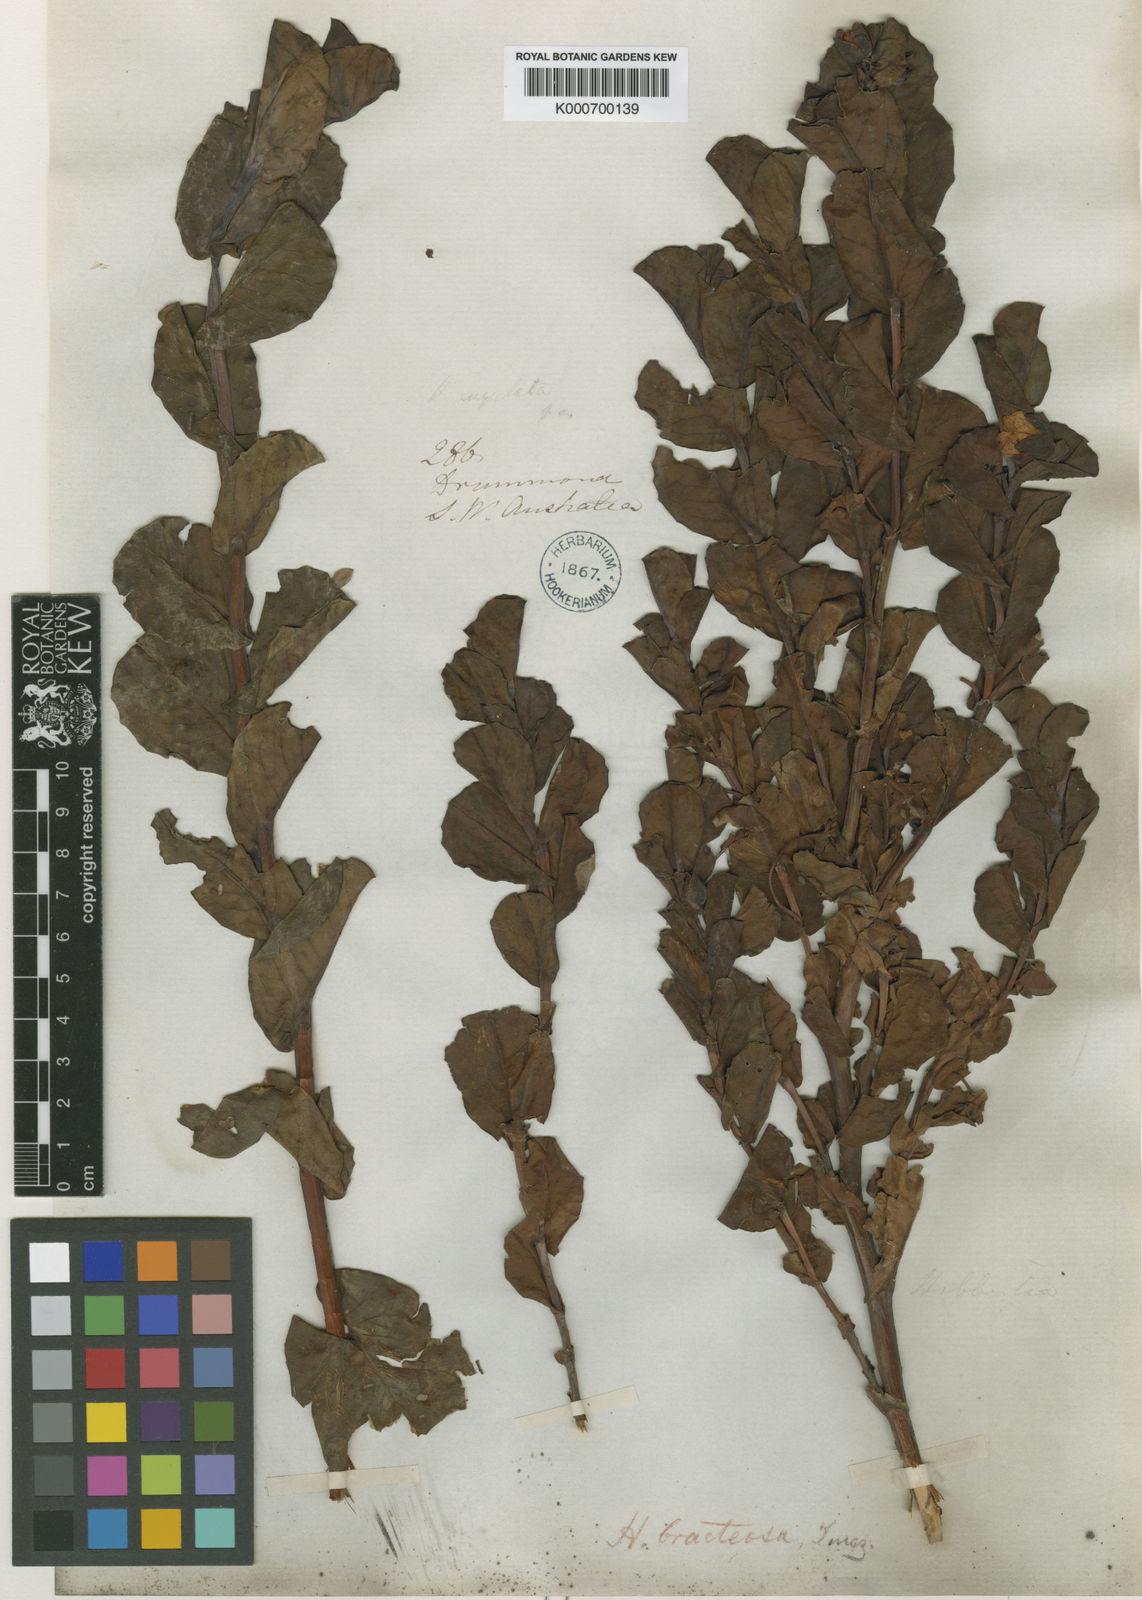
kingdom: Plantae
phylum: Tracheophyta
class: Magnoliopsida
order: Dilleniales
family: Dilleniaceae
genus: Hibbertia
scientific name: Hibbertia
